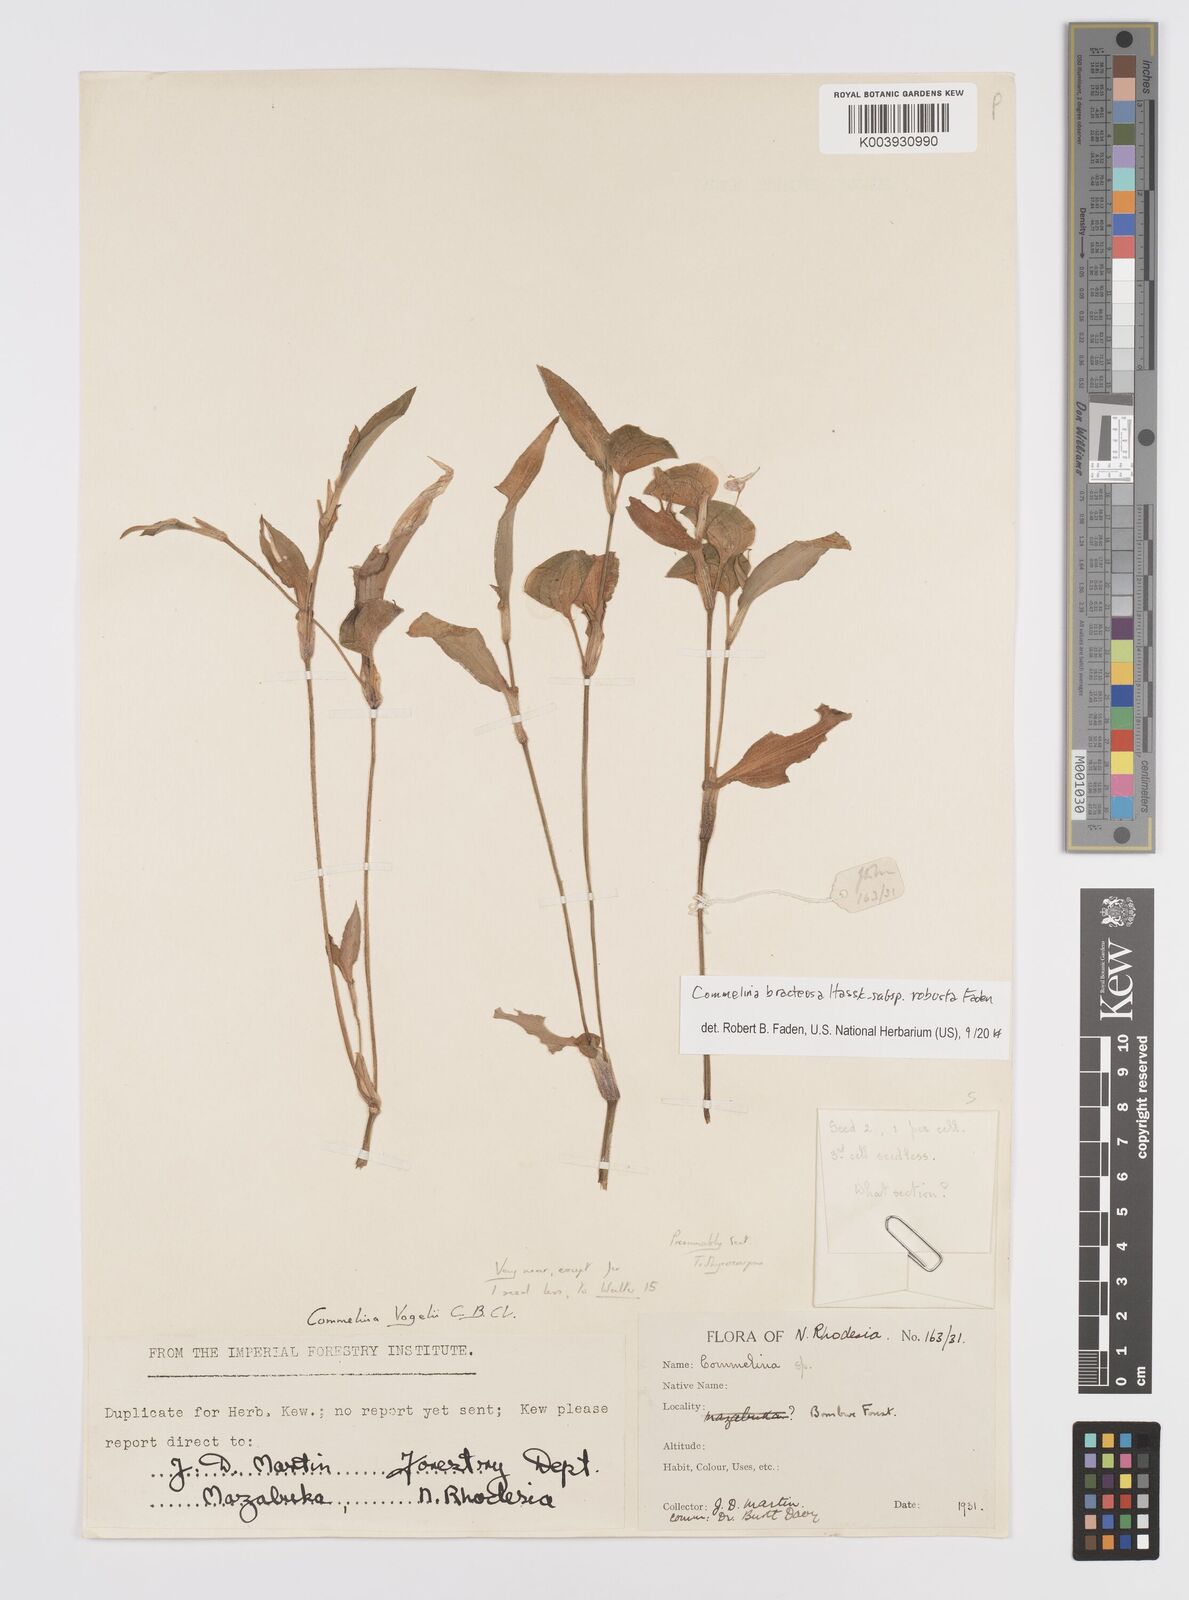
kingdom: Plantae
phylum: Tracheophyta
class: Liliopsida
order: Commelinales
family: Commelinaceae
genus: Commelina
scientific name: Commelina bracteosa
